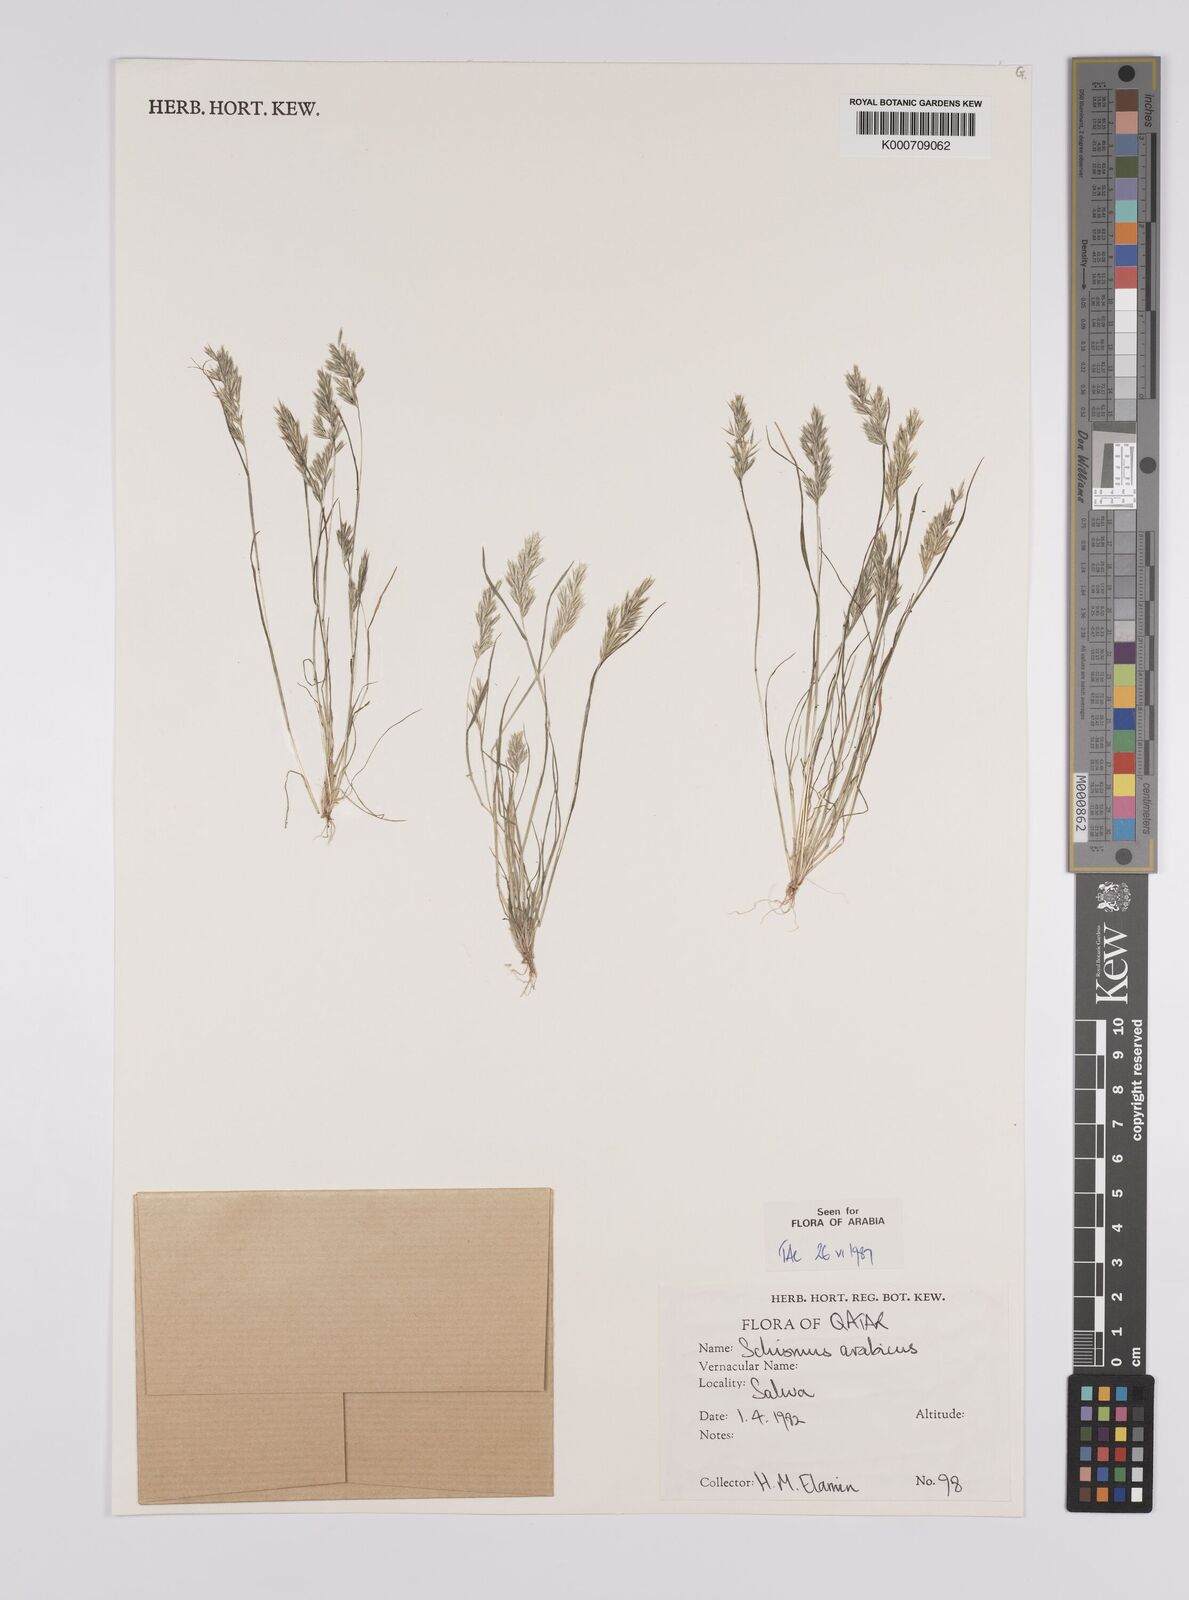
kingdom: Plantae
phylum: Tracheophyta
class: Liliopsida
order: Poales
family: Poaceae
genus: Schismus
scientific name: Schismus arabicus
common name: Arabian schismus
